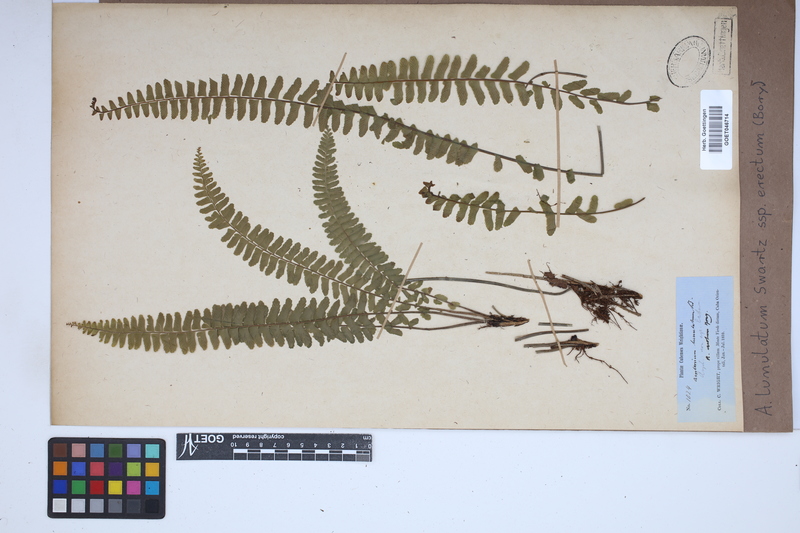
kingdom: Plantae
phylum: Tracheophyta
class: Polypodiopsida
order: Polypodiales
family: Aspleniaceae
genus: Asplenium
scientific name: Asplenium erectum
